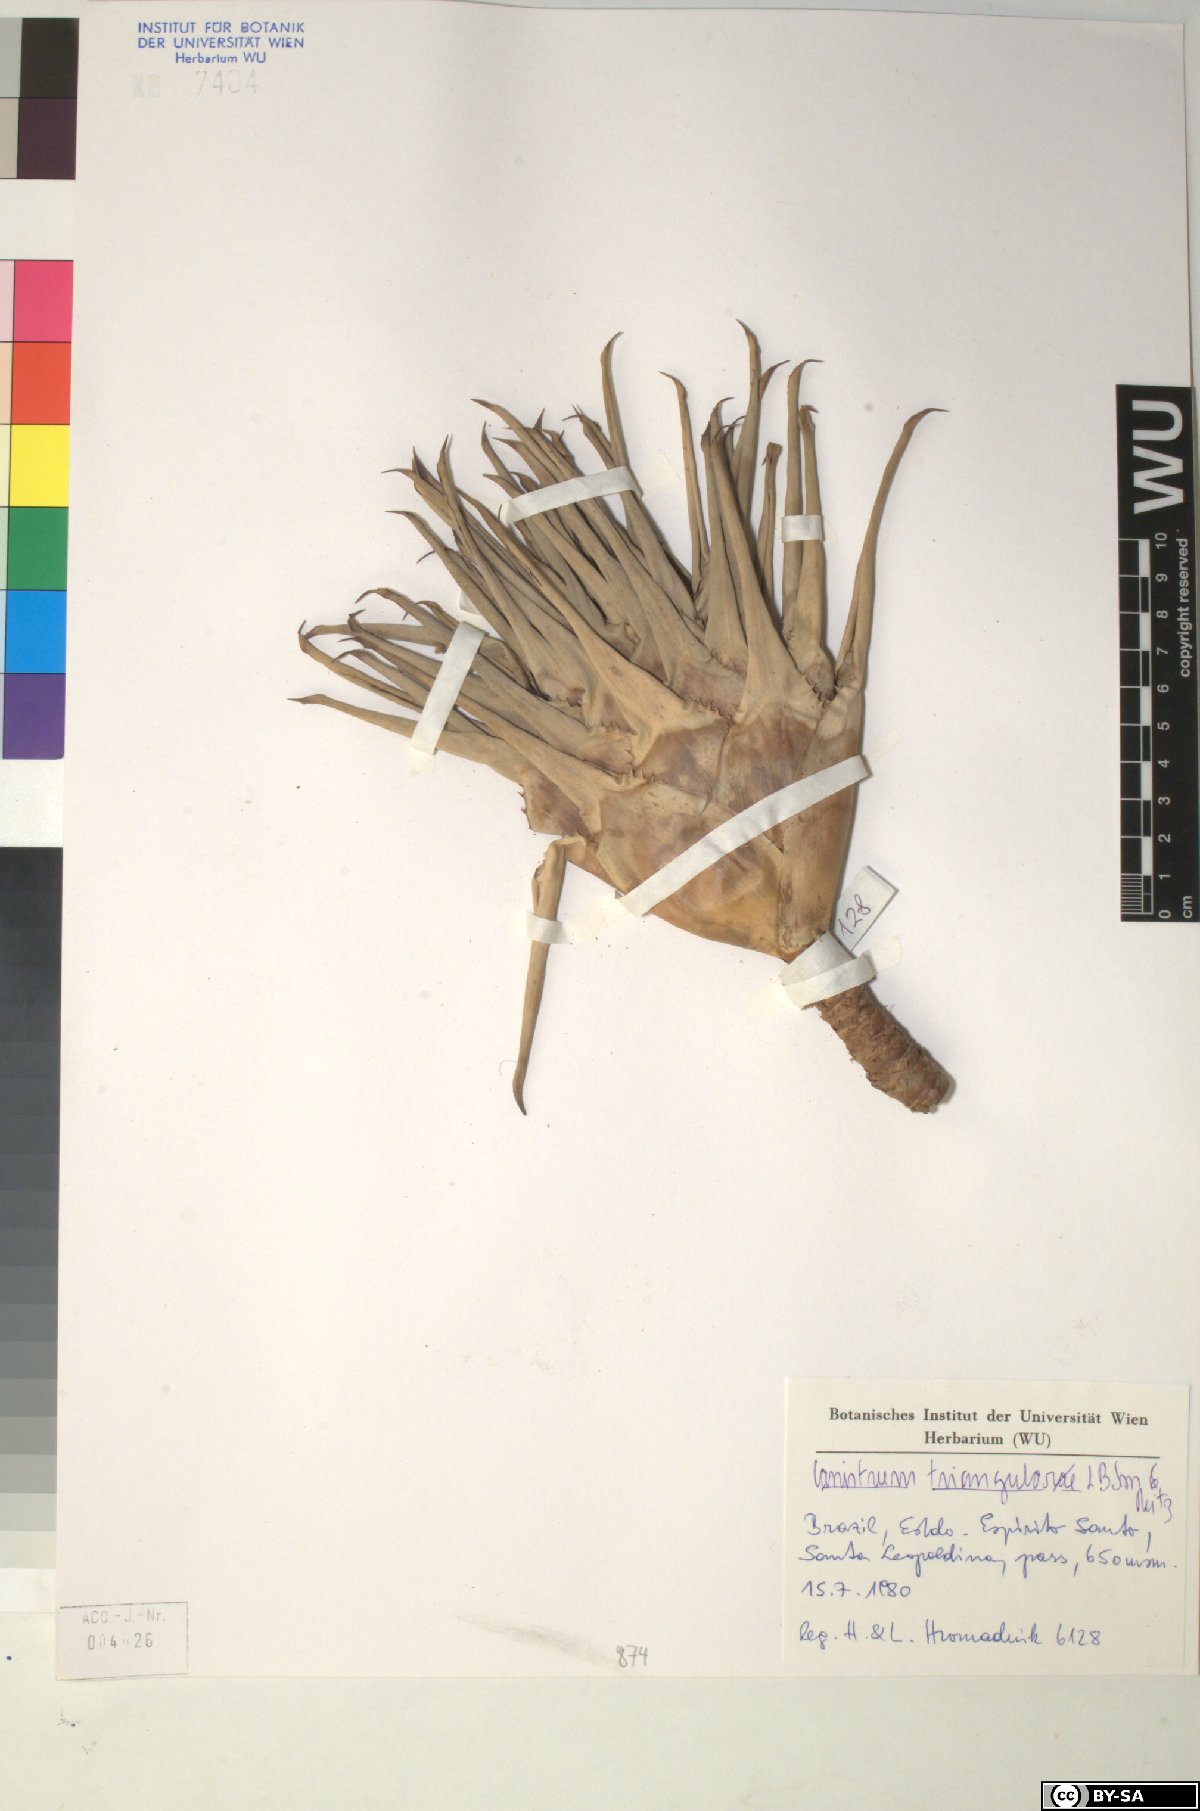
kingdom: Plantae
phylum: Tracheophyta
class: Liliopsida
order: Poales
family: Bromeliaceae
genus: Canistrum
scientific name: Canistrum triangulare
